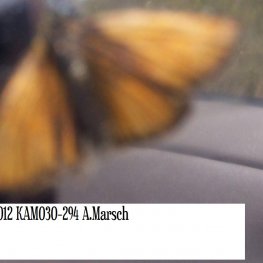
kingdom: Animalia
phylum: Arthropoda
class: Insecta
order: Lepidoptera
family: Hesperiidae
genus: Thymelicus
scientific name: Thymelicus lineola
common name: European Skipper
